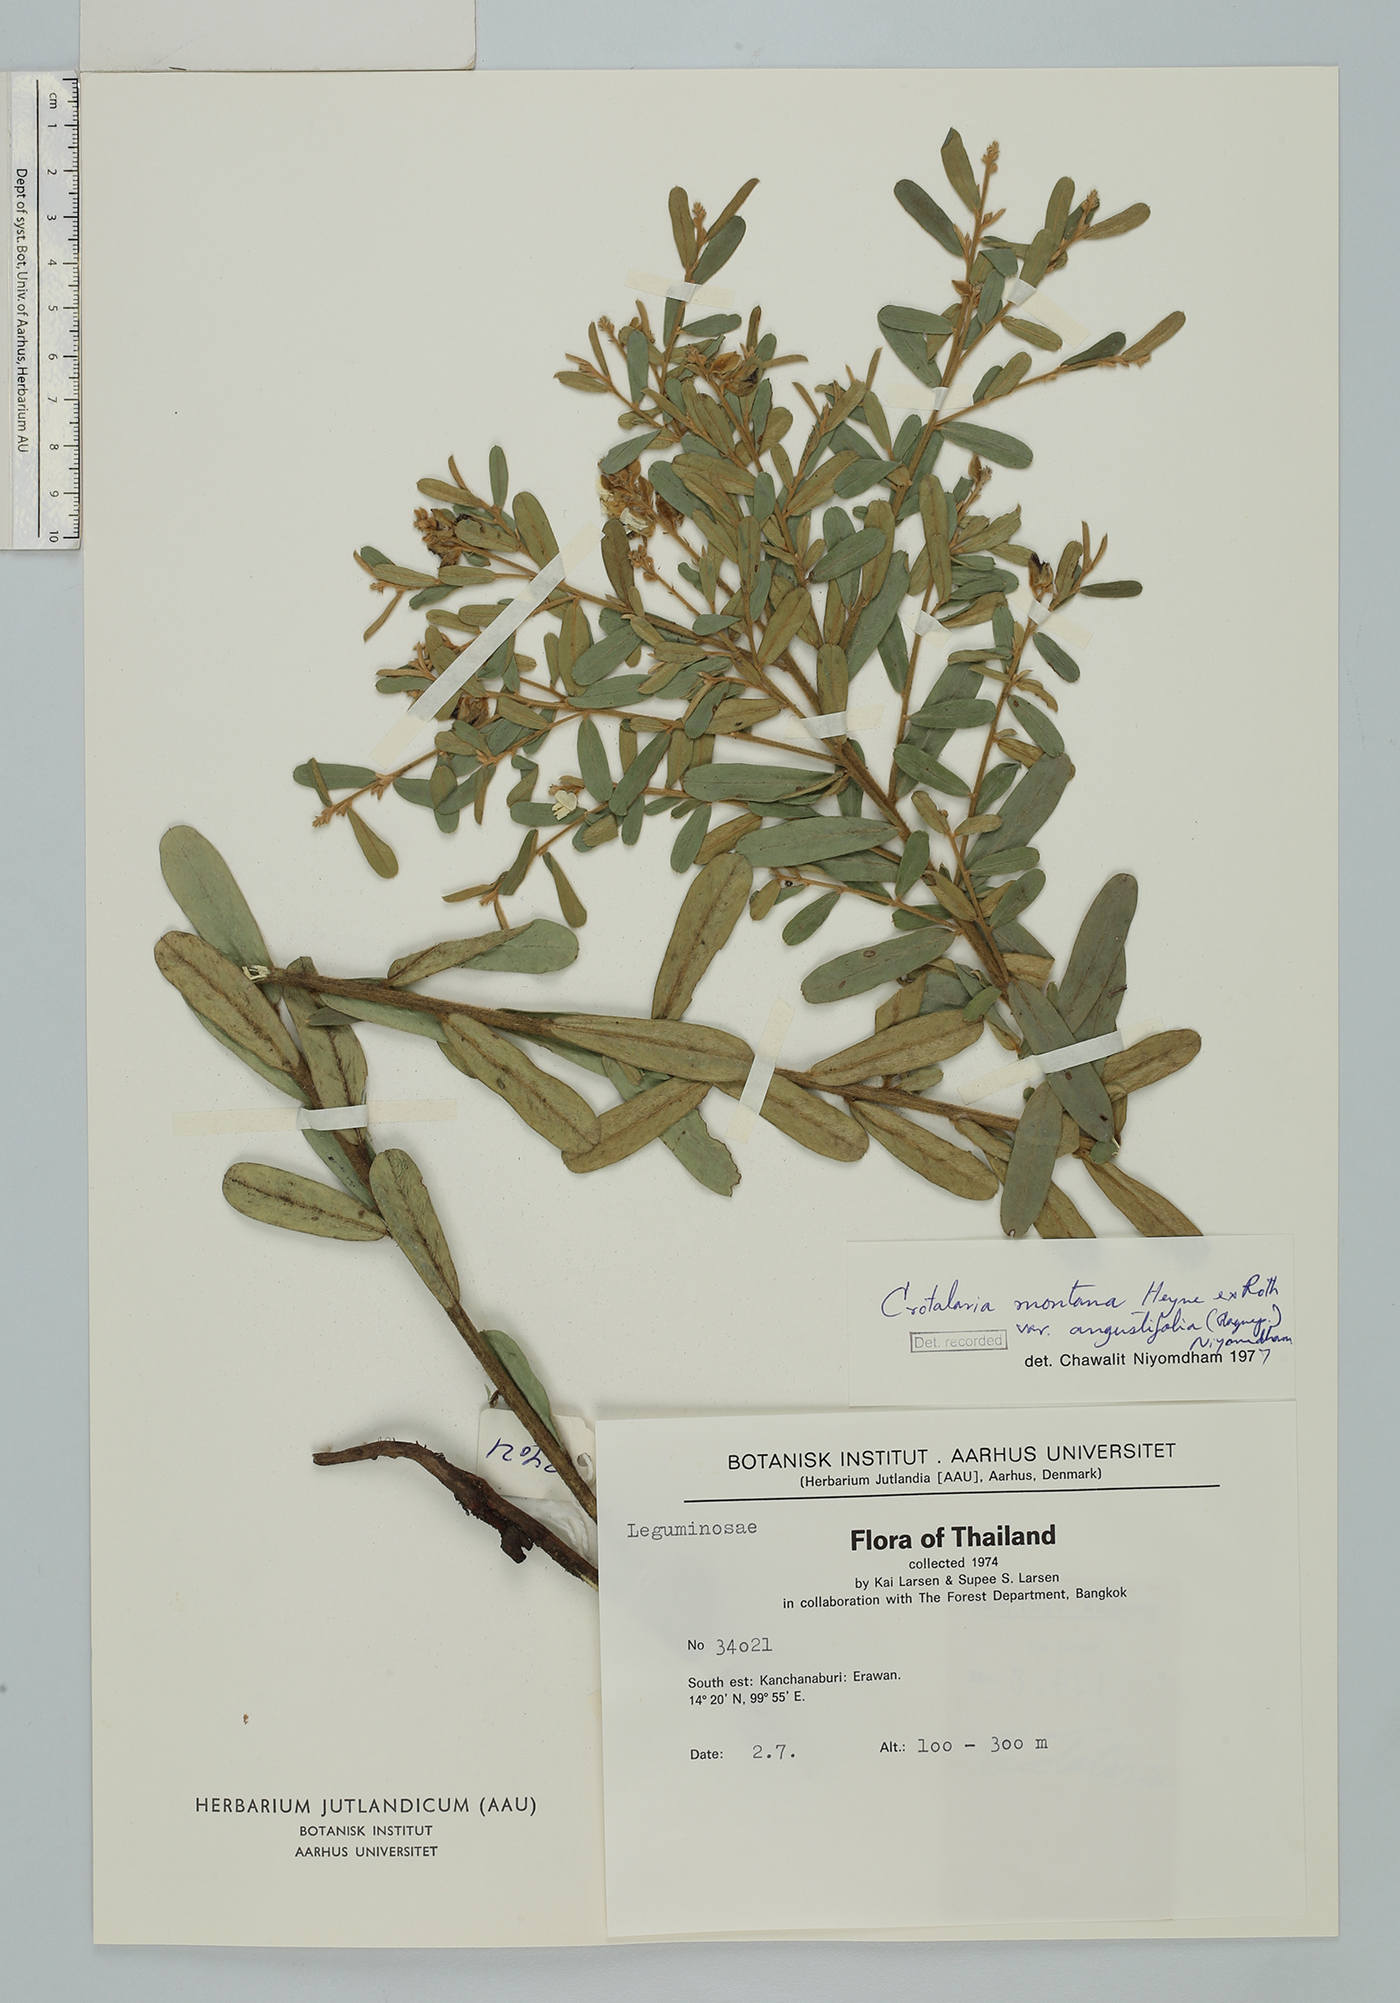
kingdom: Plantae
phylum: Tracheophyta
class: Magnoliopsida
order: Fabales
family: Fabaceae
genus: Crotalaria
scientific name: Crotalaria albida
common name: Taiwan crotalaria
